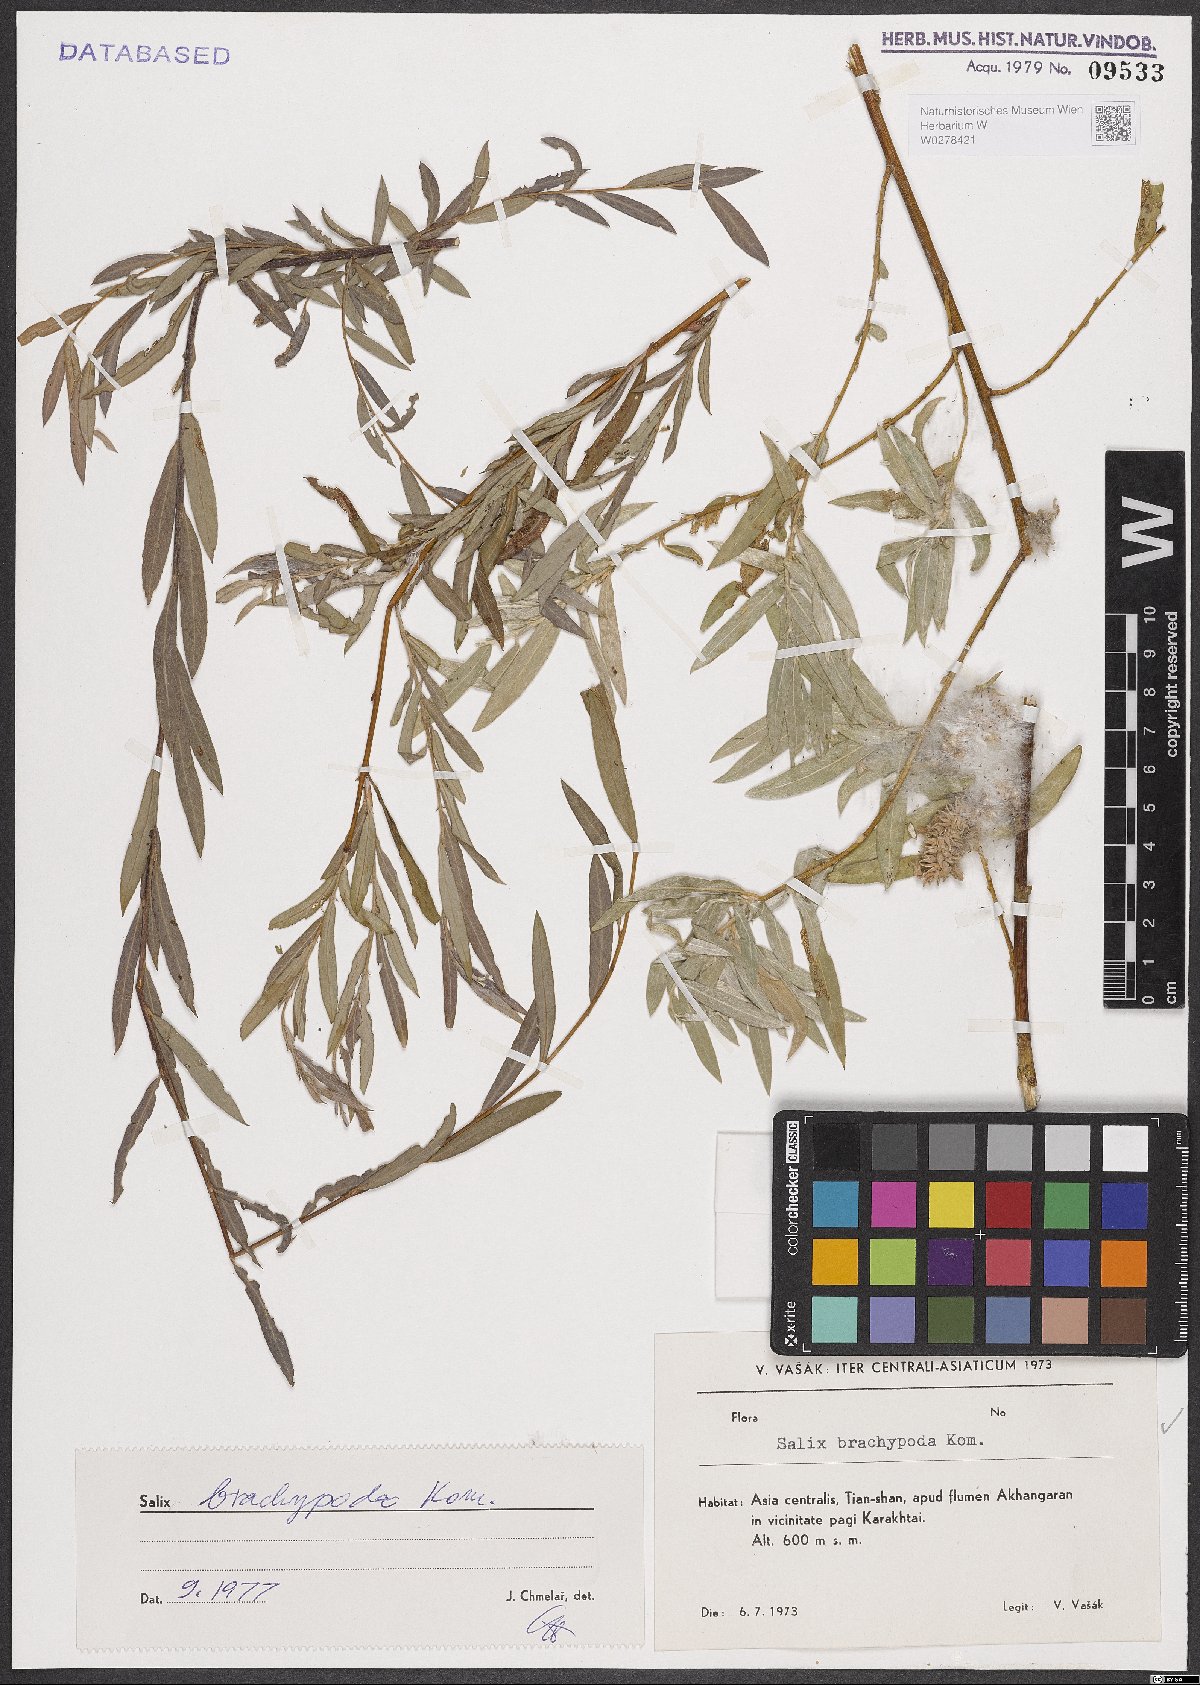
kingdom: Plantae
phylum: Tracheophyta
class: Magnoliopsida
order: Malpighiales
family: Salicaceae
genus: Salix
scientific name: Salix brachypoda
